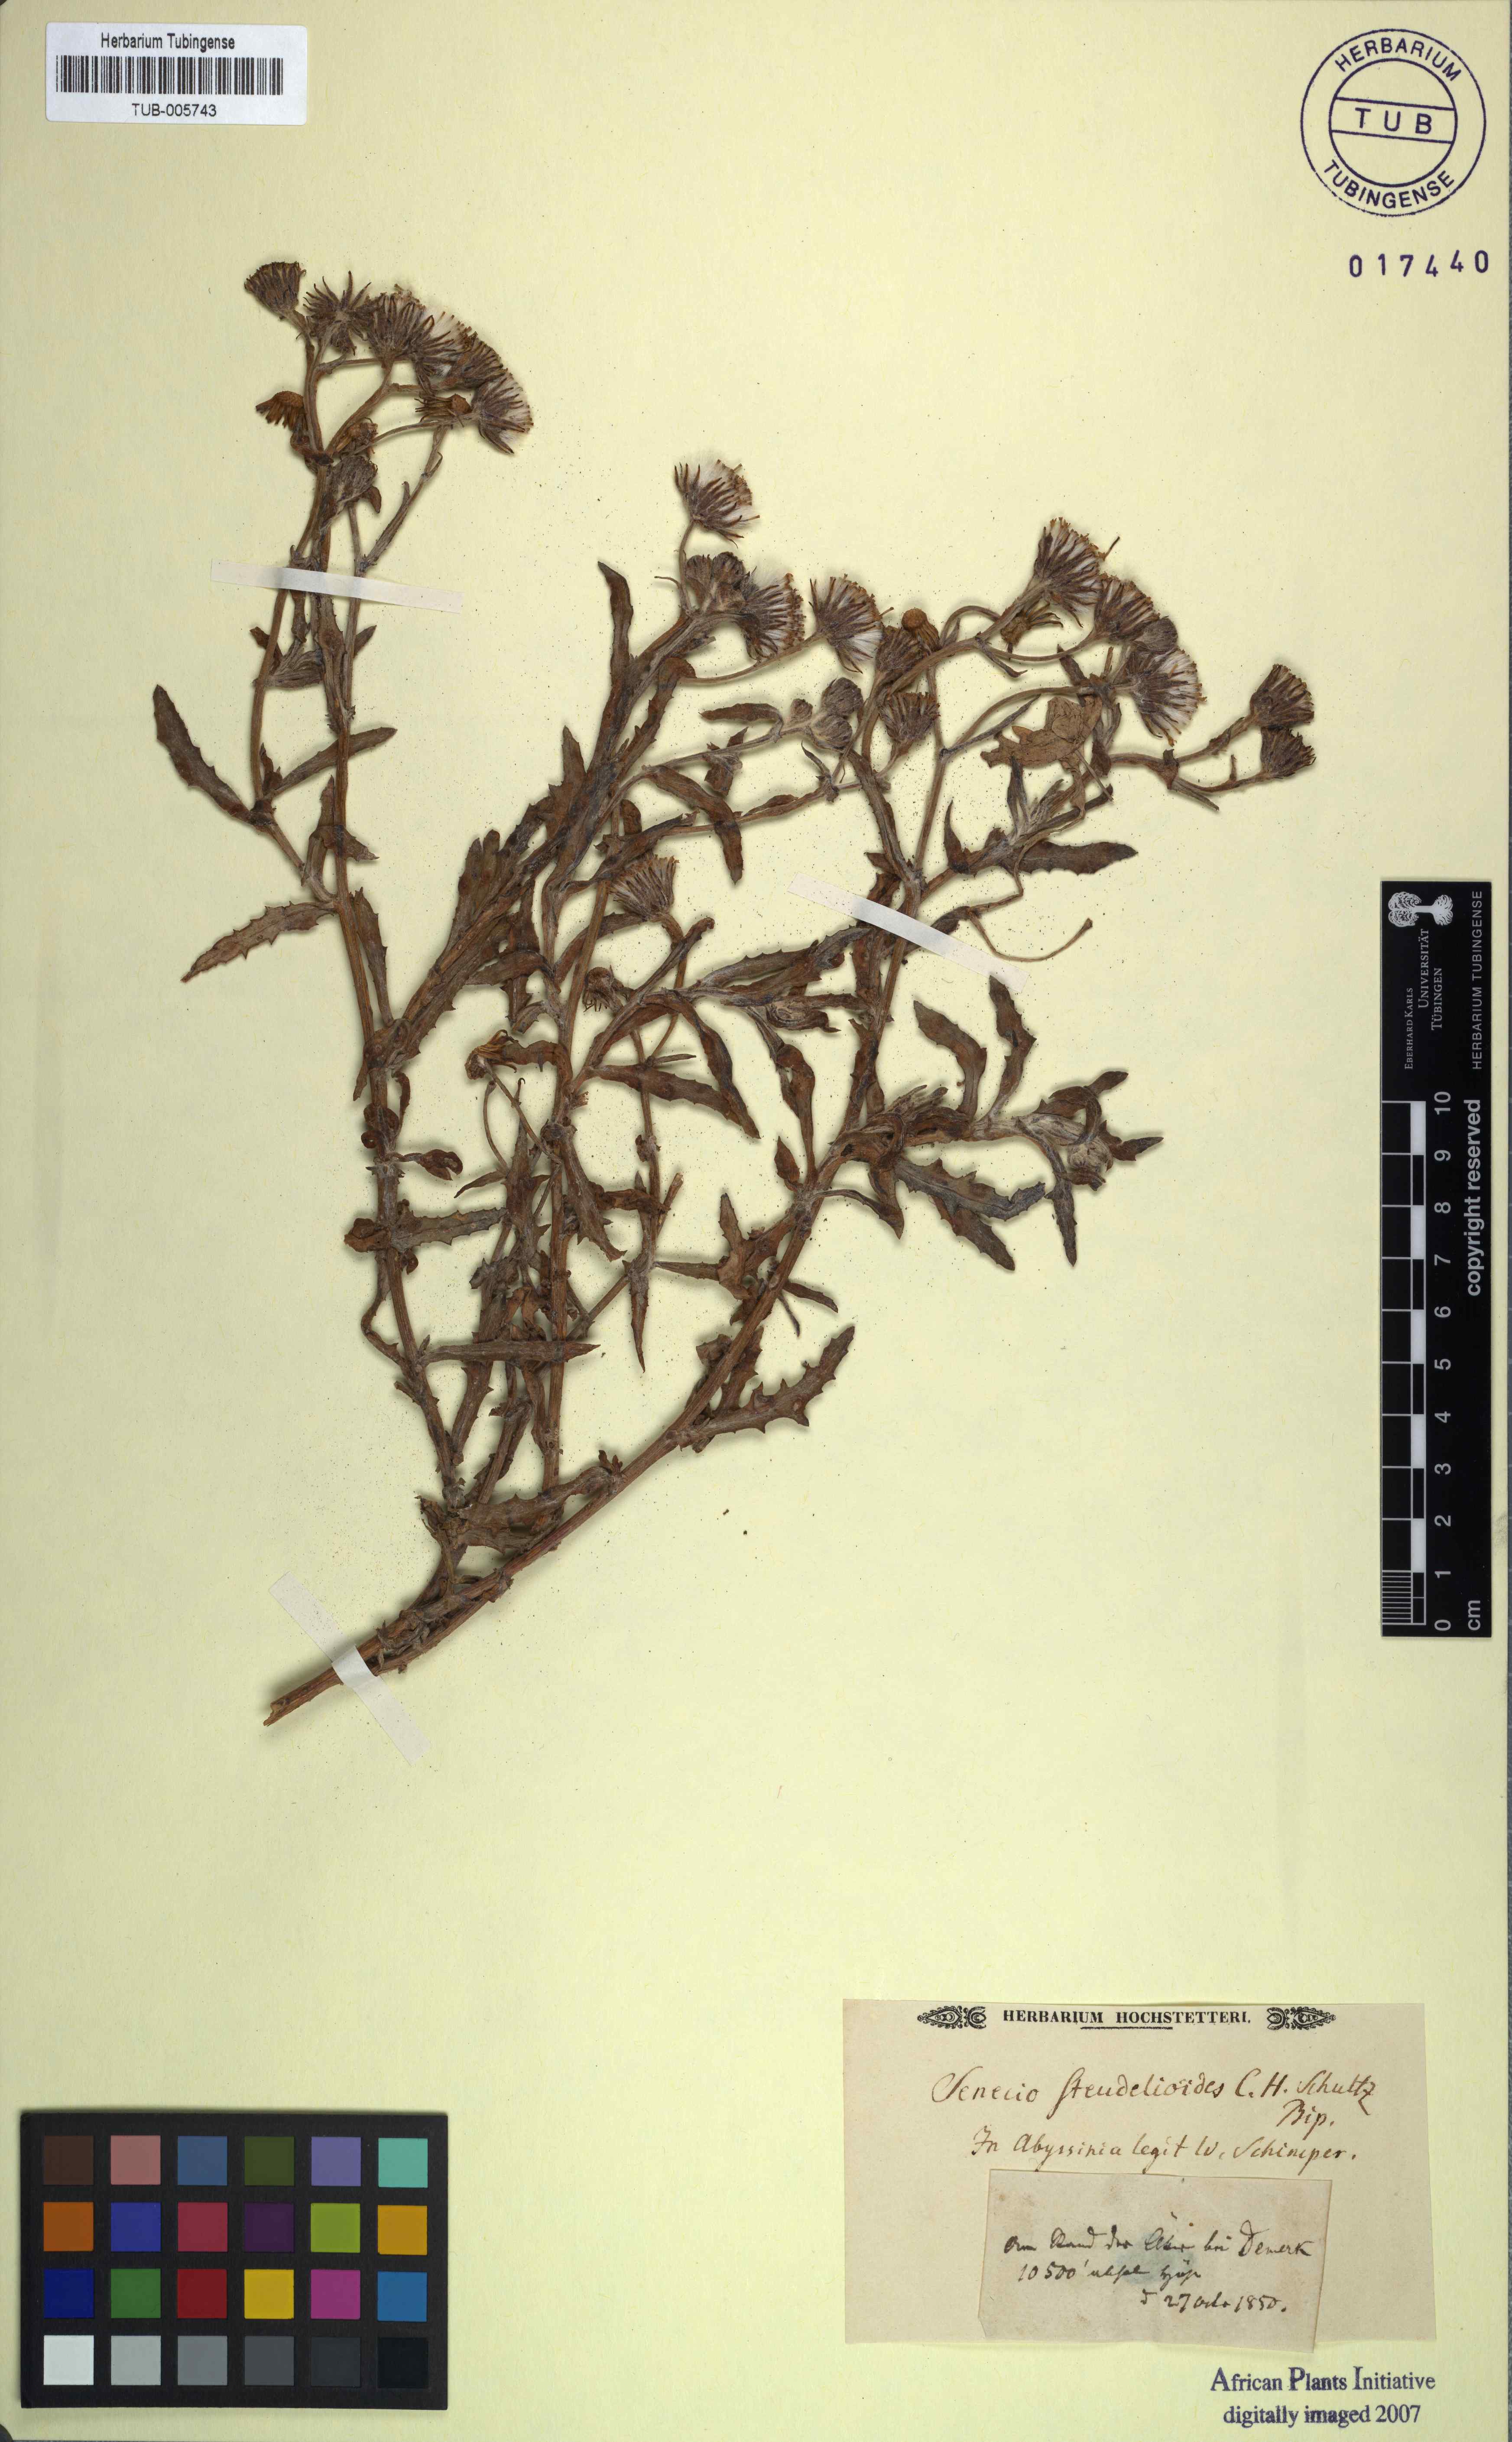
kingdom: Plantae
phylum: Tracheophyta
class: Magnoliopsida
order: Asterales
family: Asteraceae
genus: Senecio
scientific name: Senecio steudelioides
